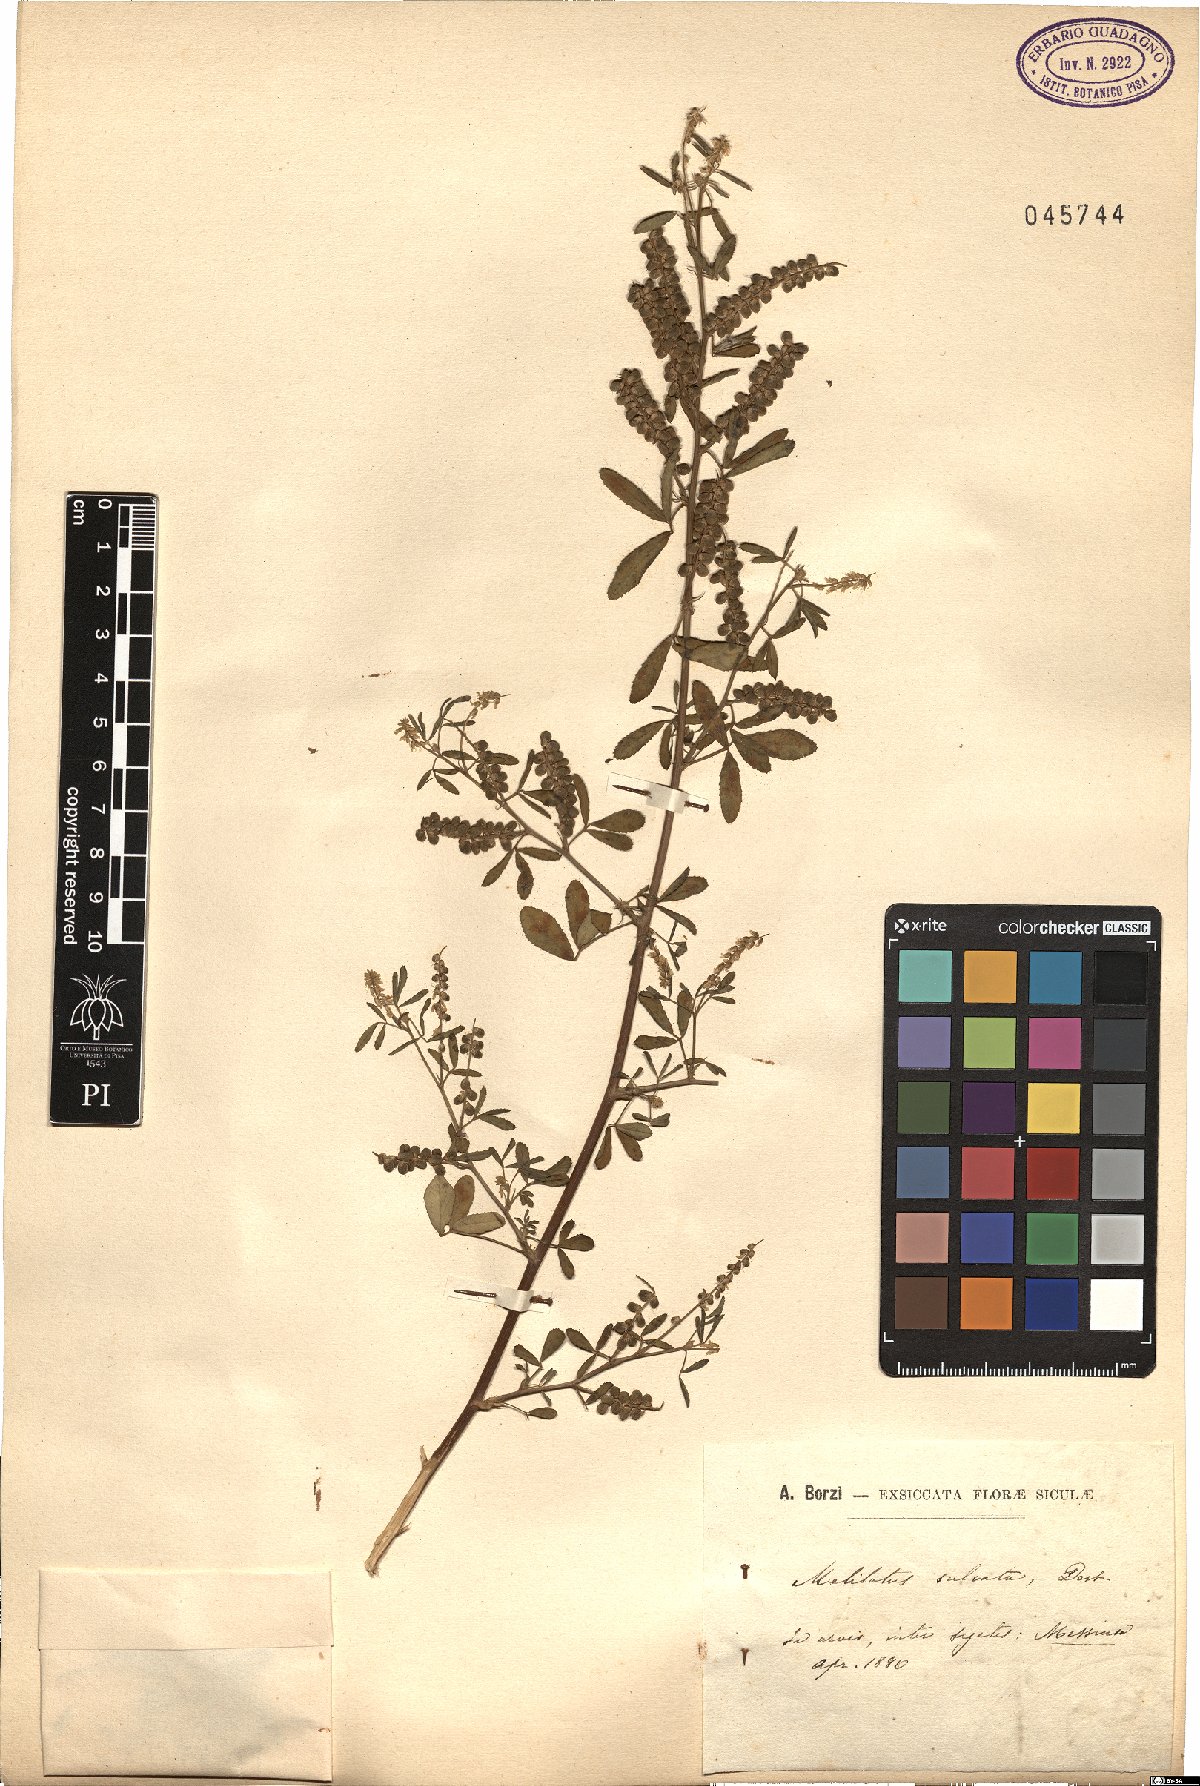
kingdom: Plantae
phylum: Tracheophyta
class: Magnoliopsida
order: Fabales
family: Fabaceae
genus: Melilotus
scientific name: Melilotus sulcatus
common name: Furrowed melilot
